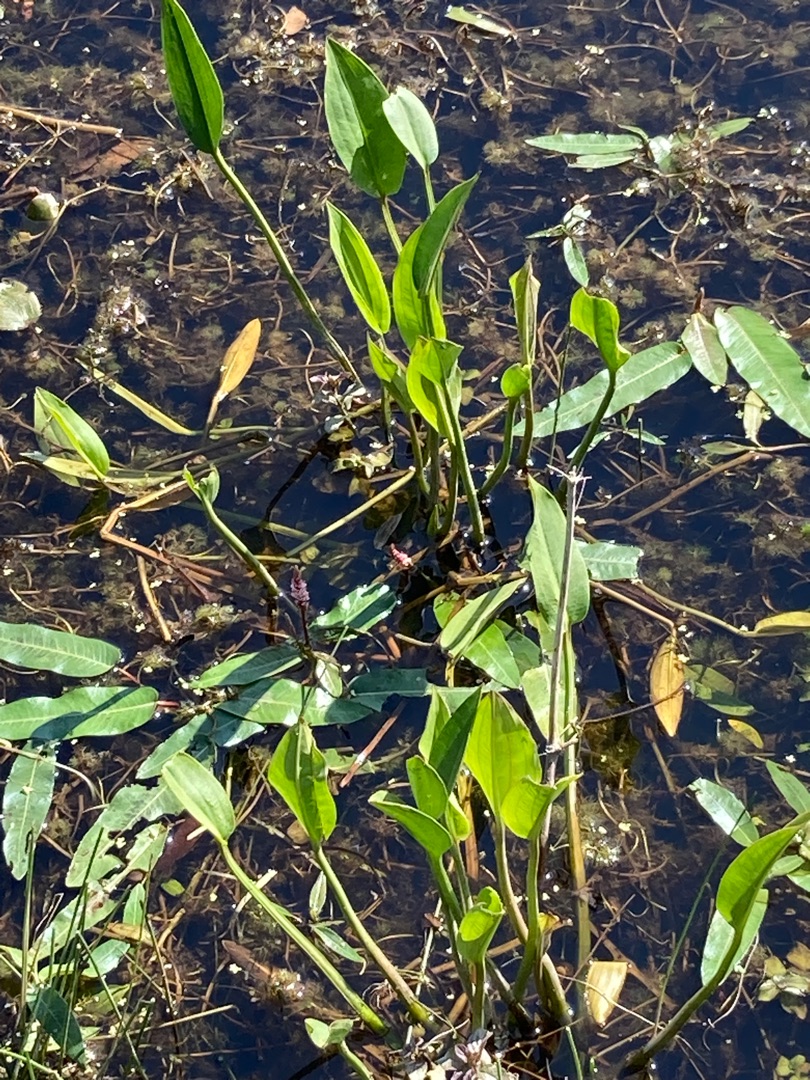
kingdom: Plantae
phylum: Tracheophyta
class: Liliopsida
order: Alismatales
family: Alismataceae
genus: Alisma
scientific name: Alisma plantago-aquatica
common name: Vejbred-skeblad
